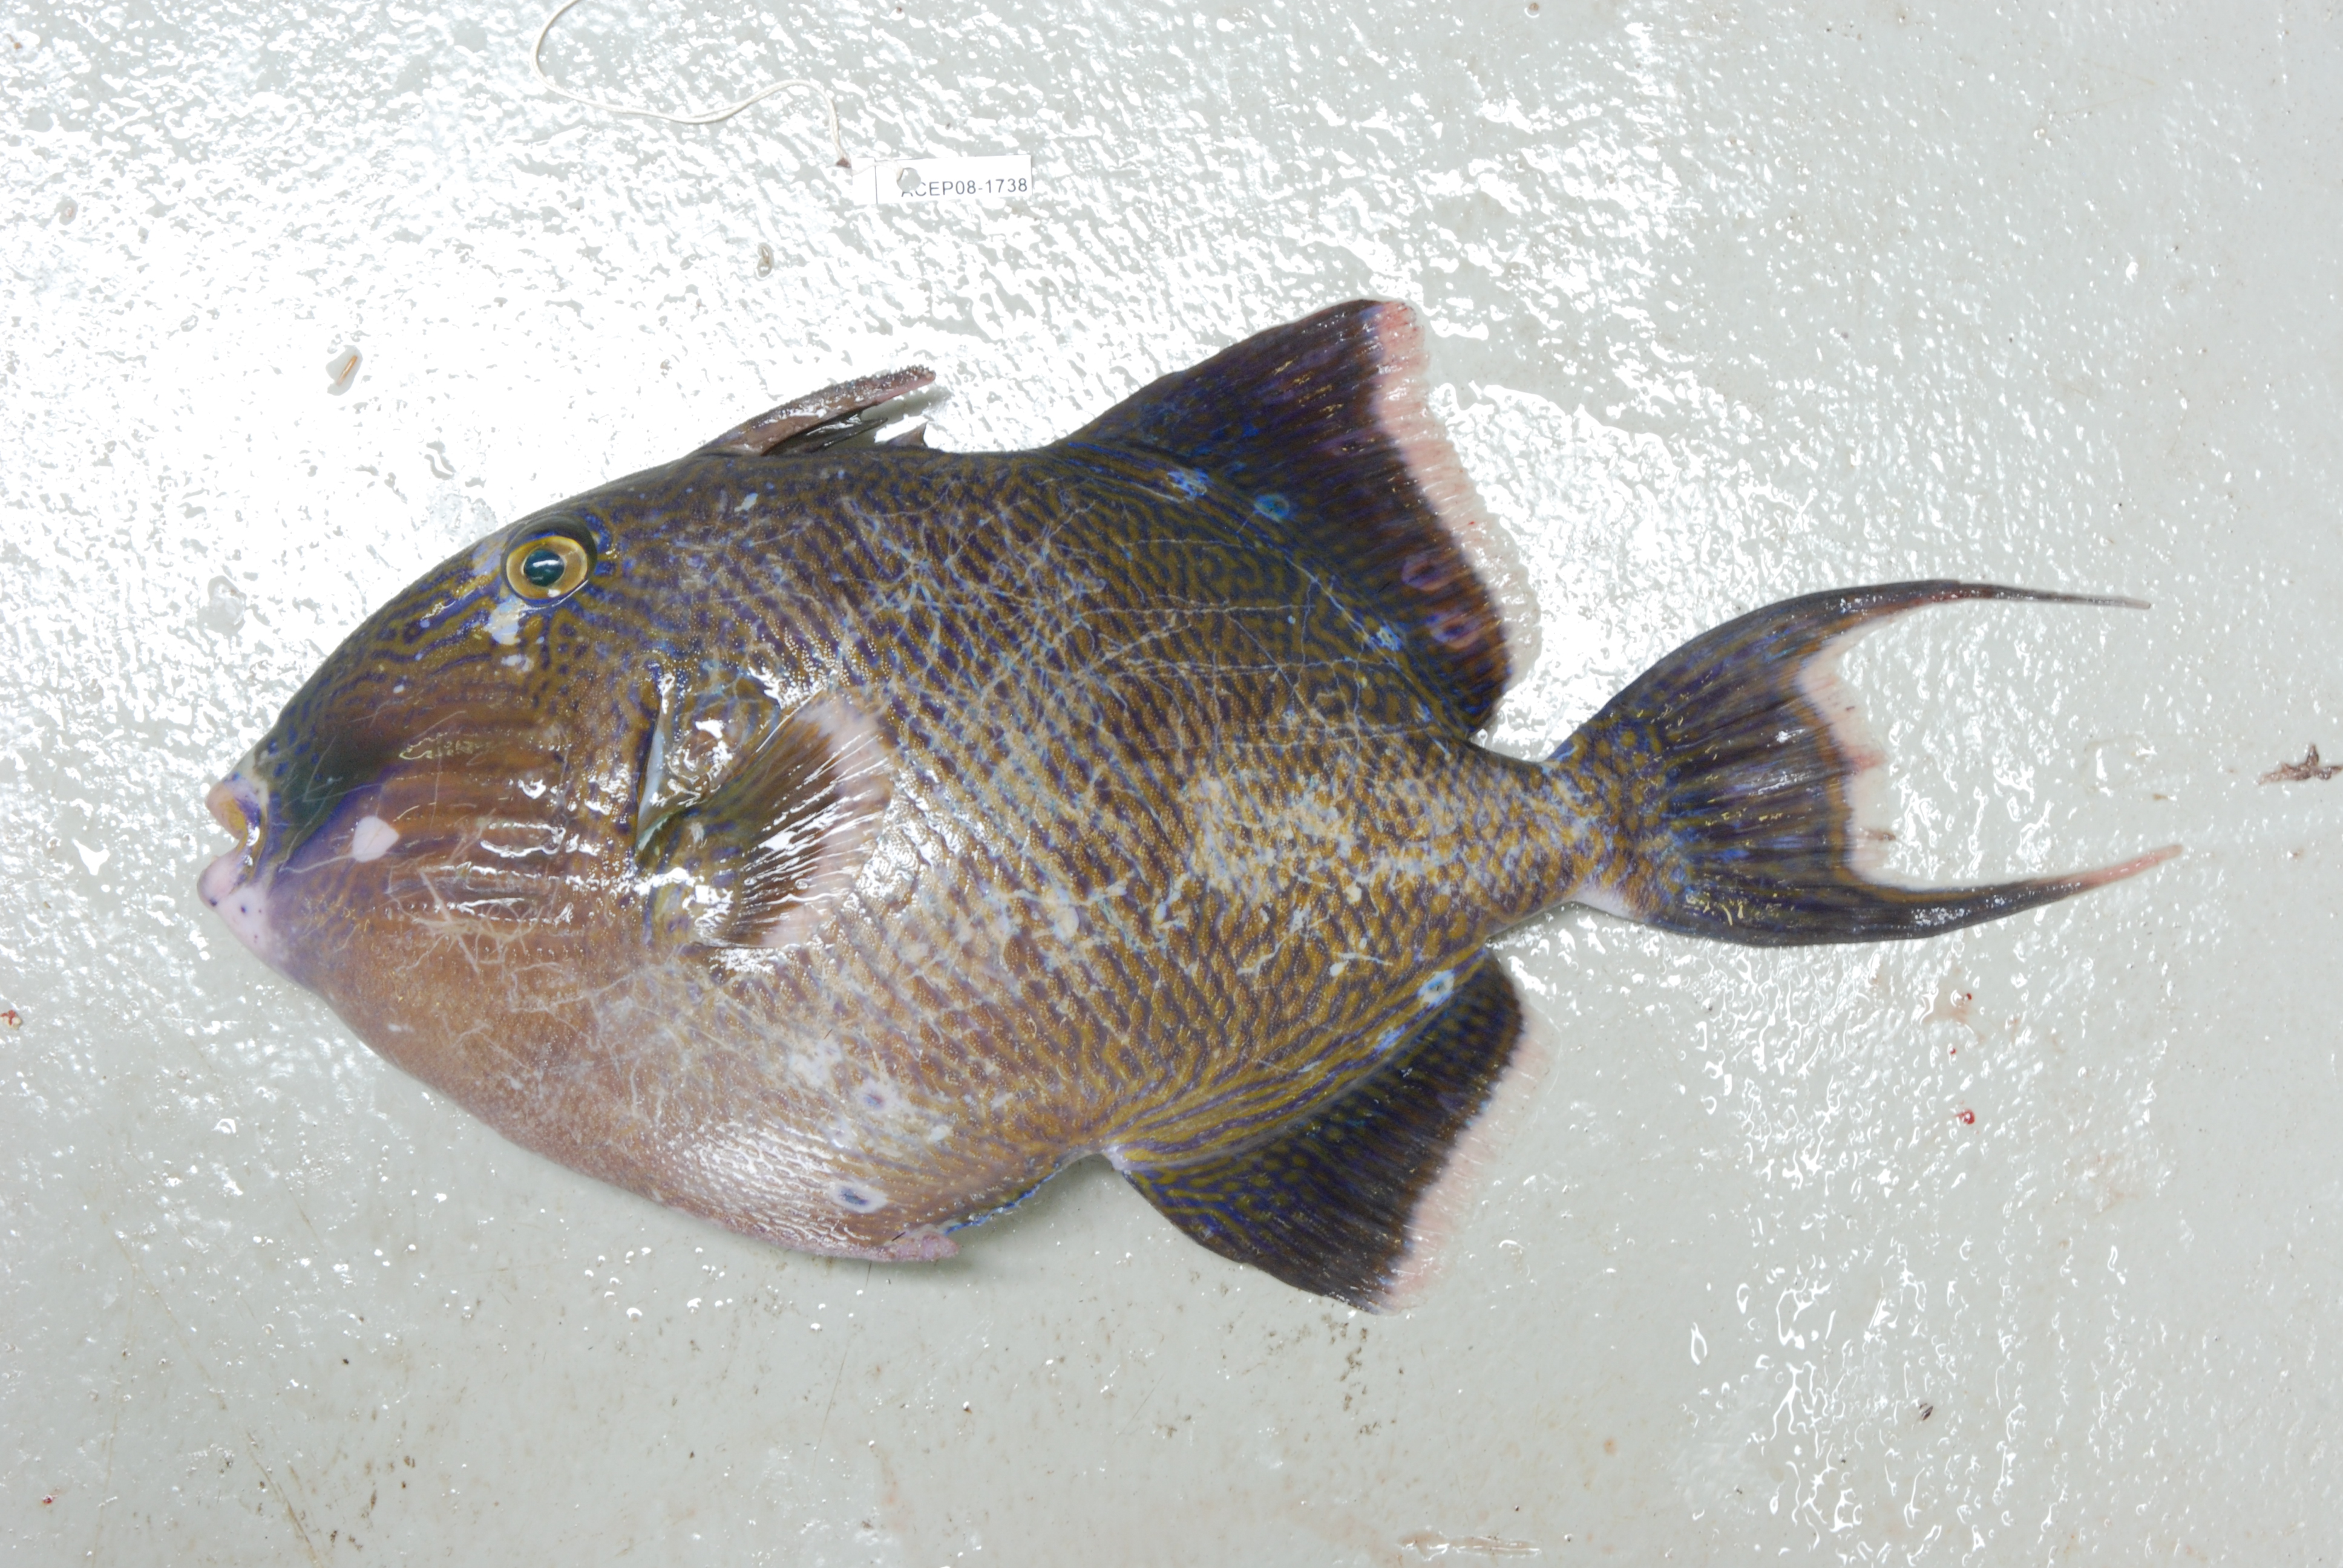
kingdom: Animalia
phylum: Chordata
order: Tetraodontiformes
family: Balistidae
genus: Pseudobalistes
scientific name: Pseudobalistes fuscus
